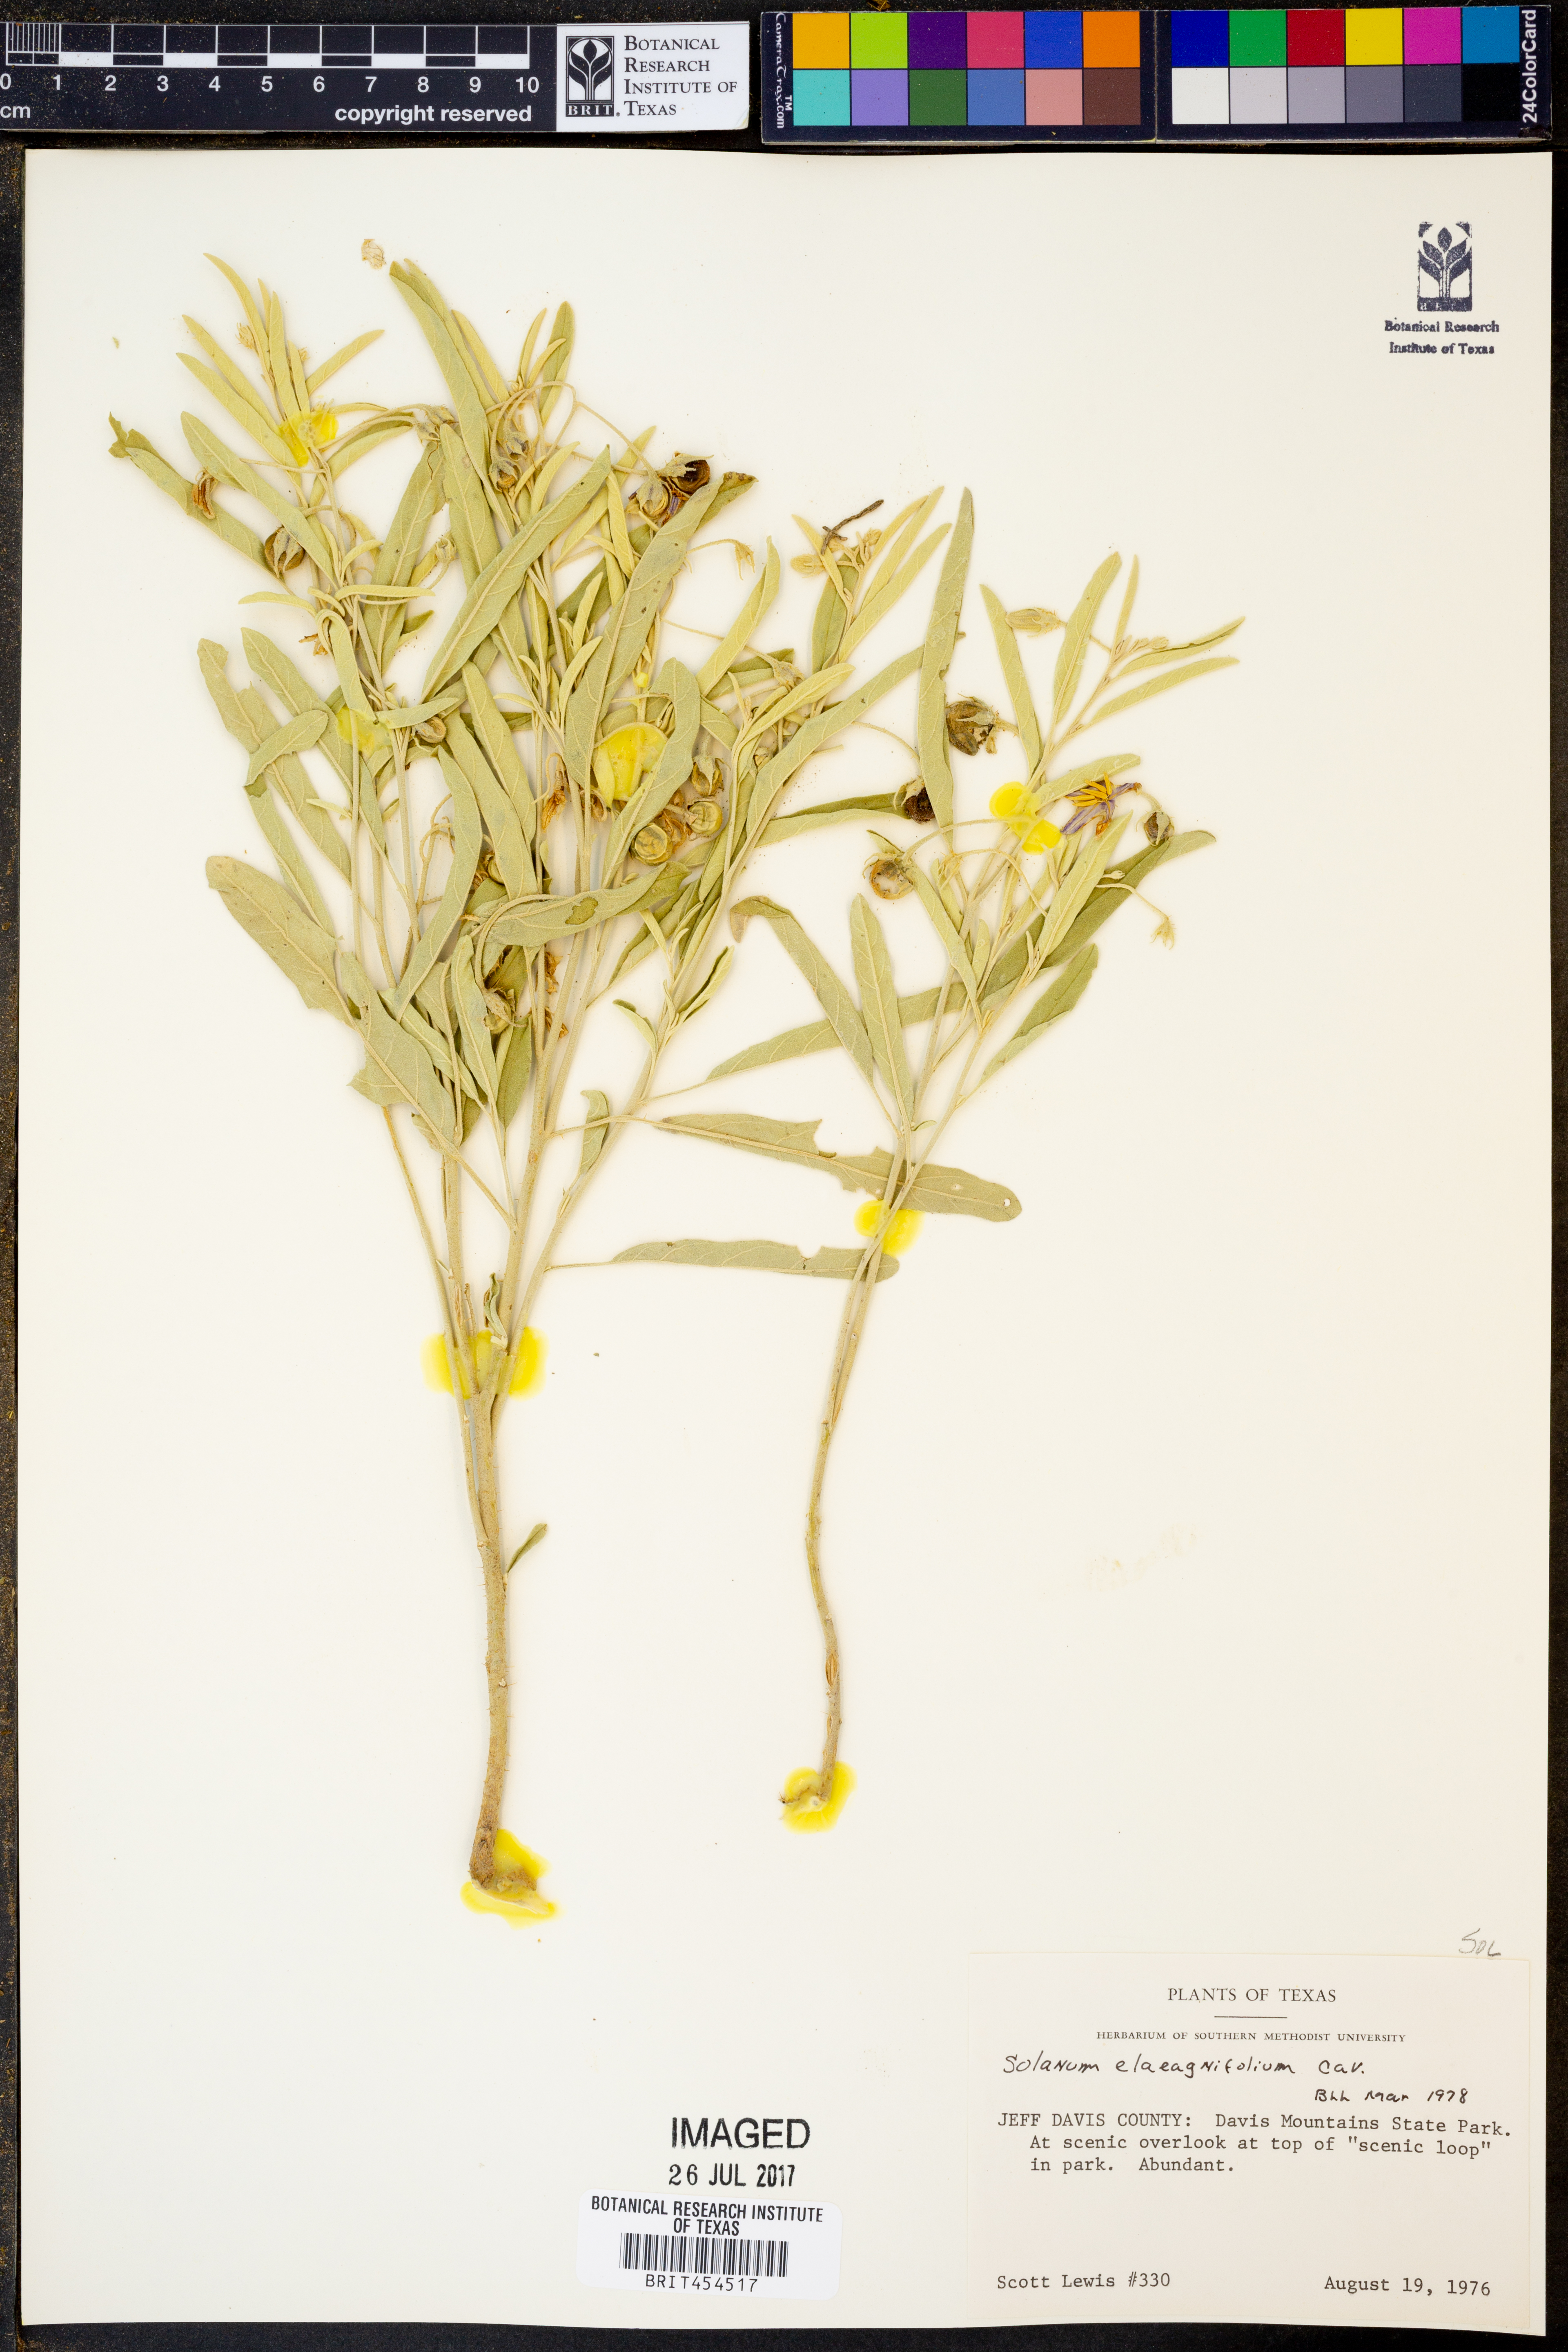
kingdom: Plantae
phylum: Tracheophyta
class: Magnoliopsida
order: Solanales
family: Solanaceae
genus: Solanum
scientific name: Solanum elaeagnifolium
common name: Silverleaf nightshade
